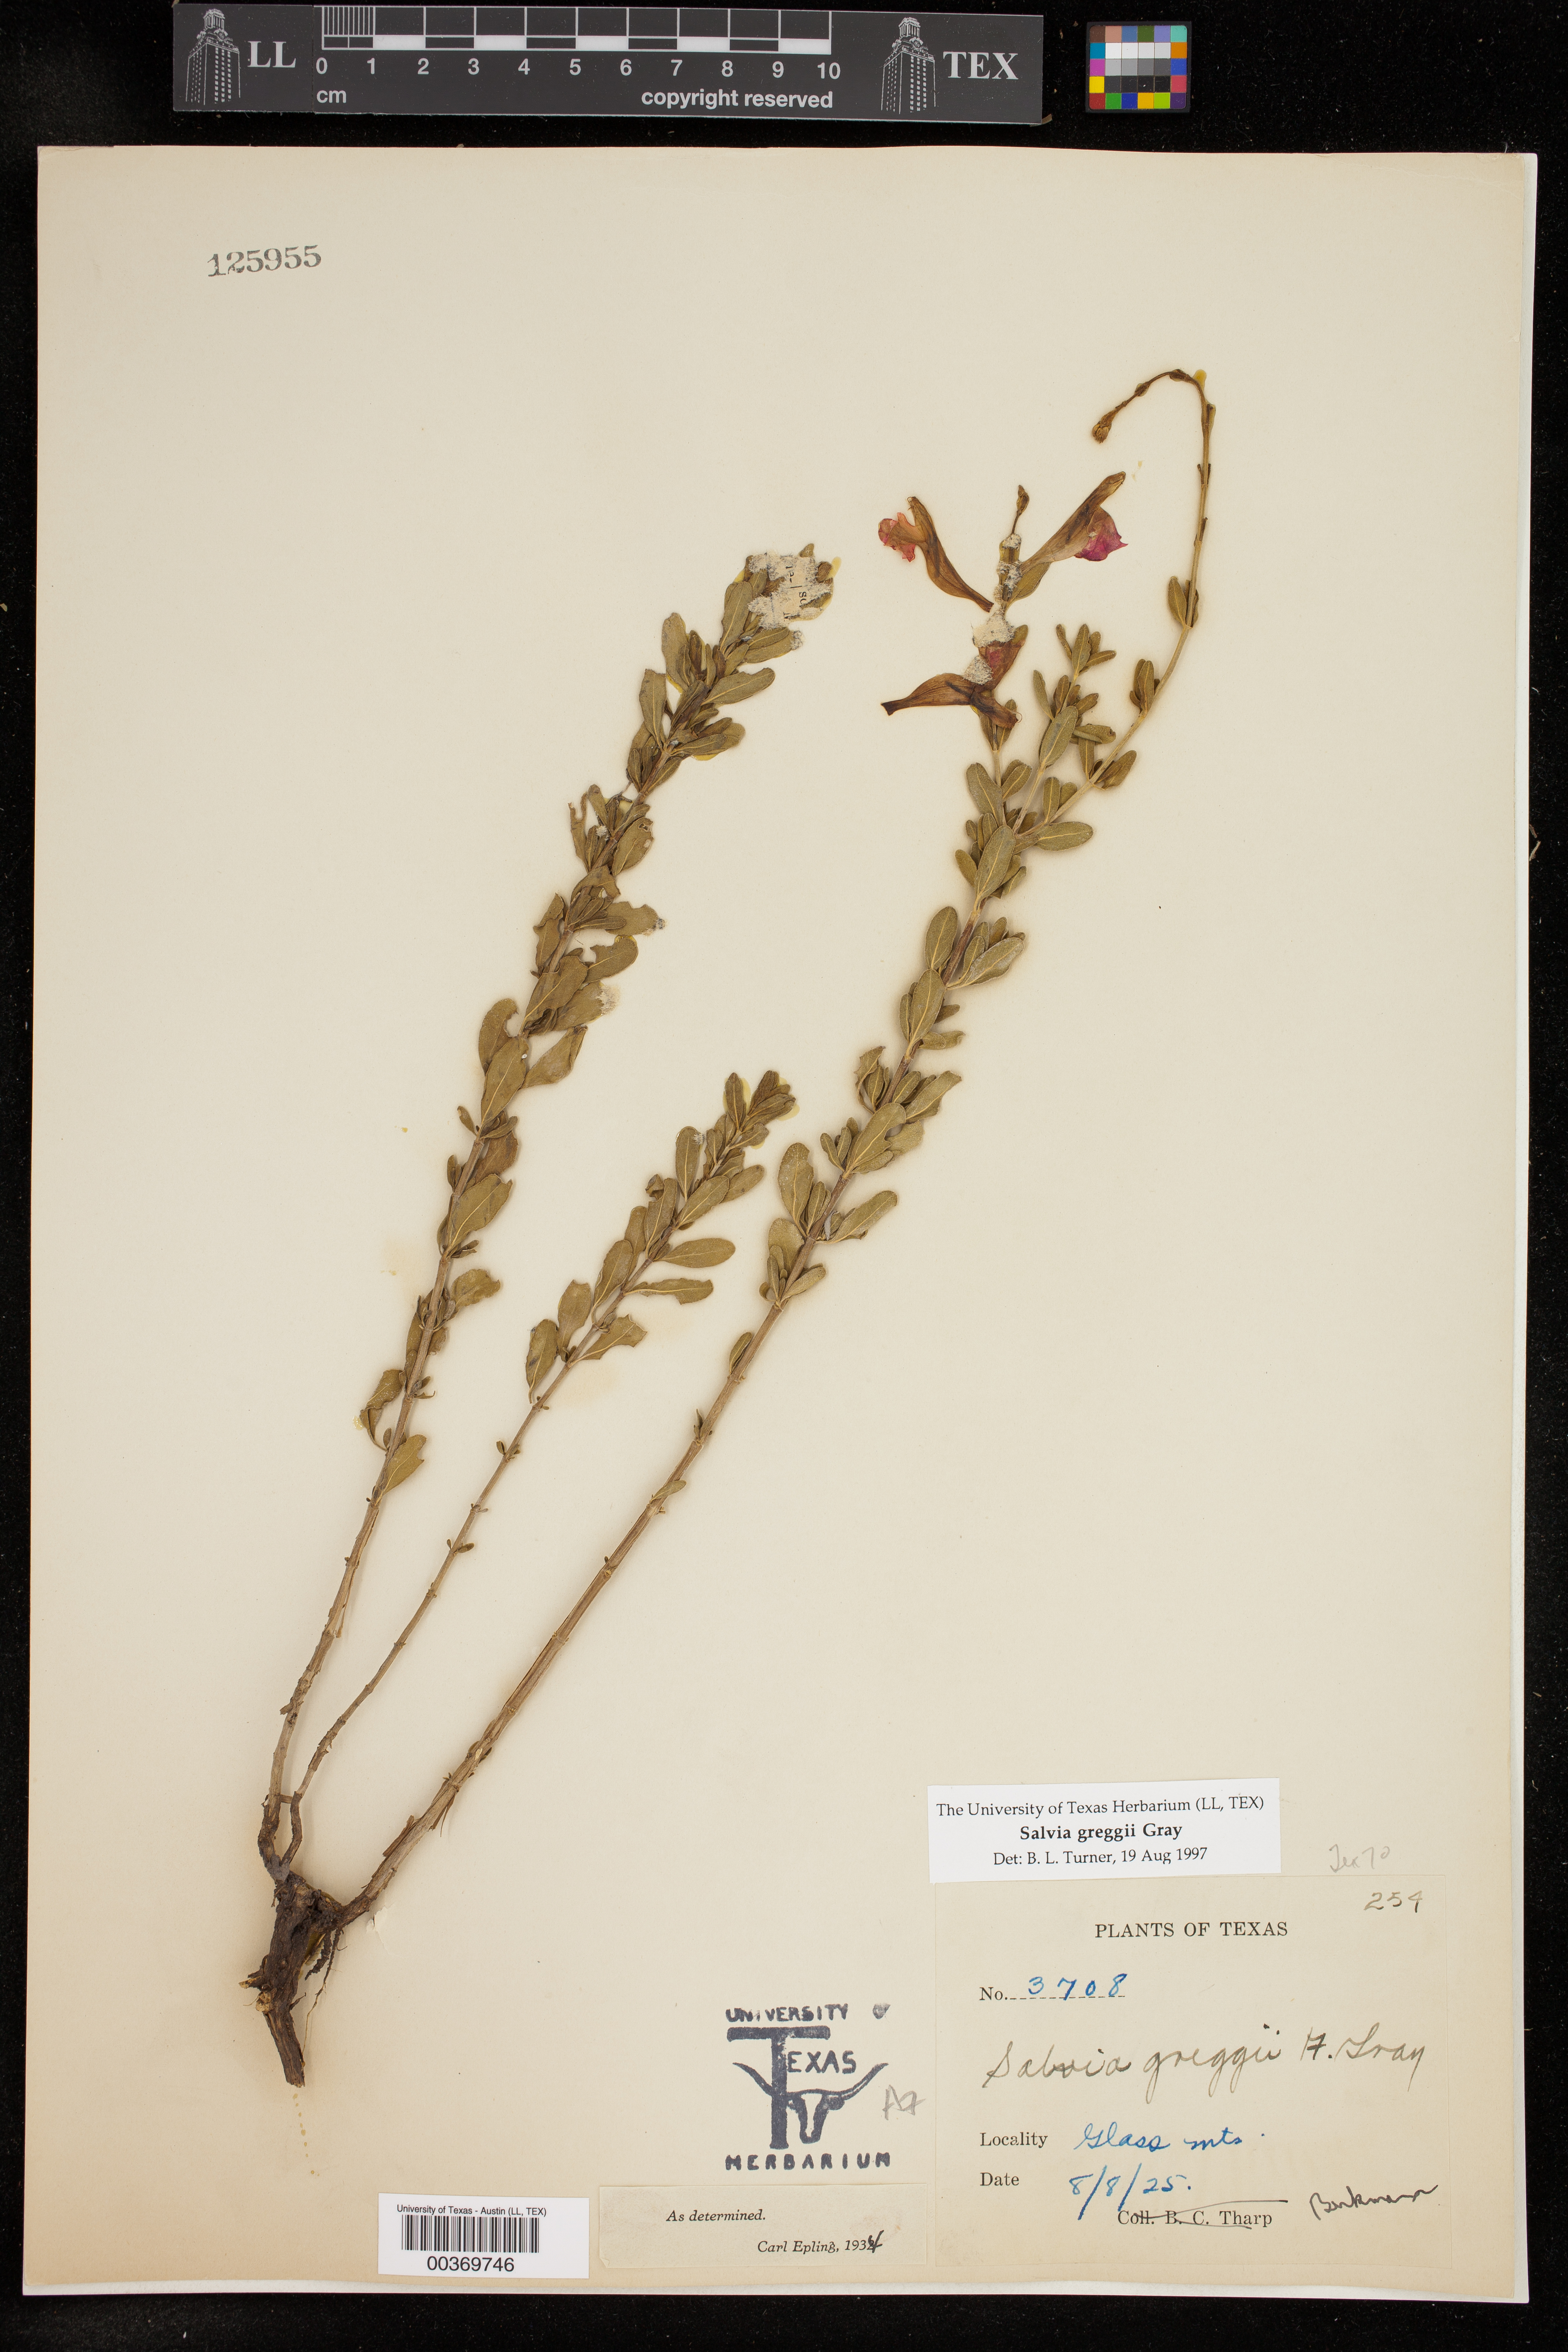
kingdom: Plantae
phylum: Tracheophyta
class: Magnoliopsida
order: Lamiales
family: Lamiaceae
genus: Salvia
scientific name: Salvia greggii
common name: Autumn sage
